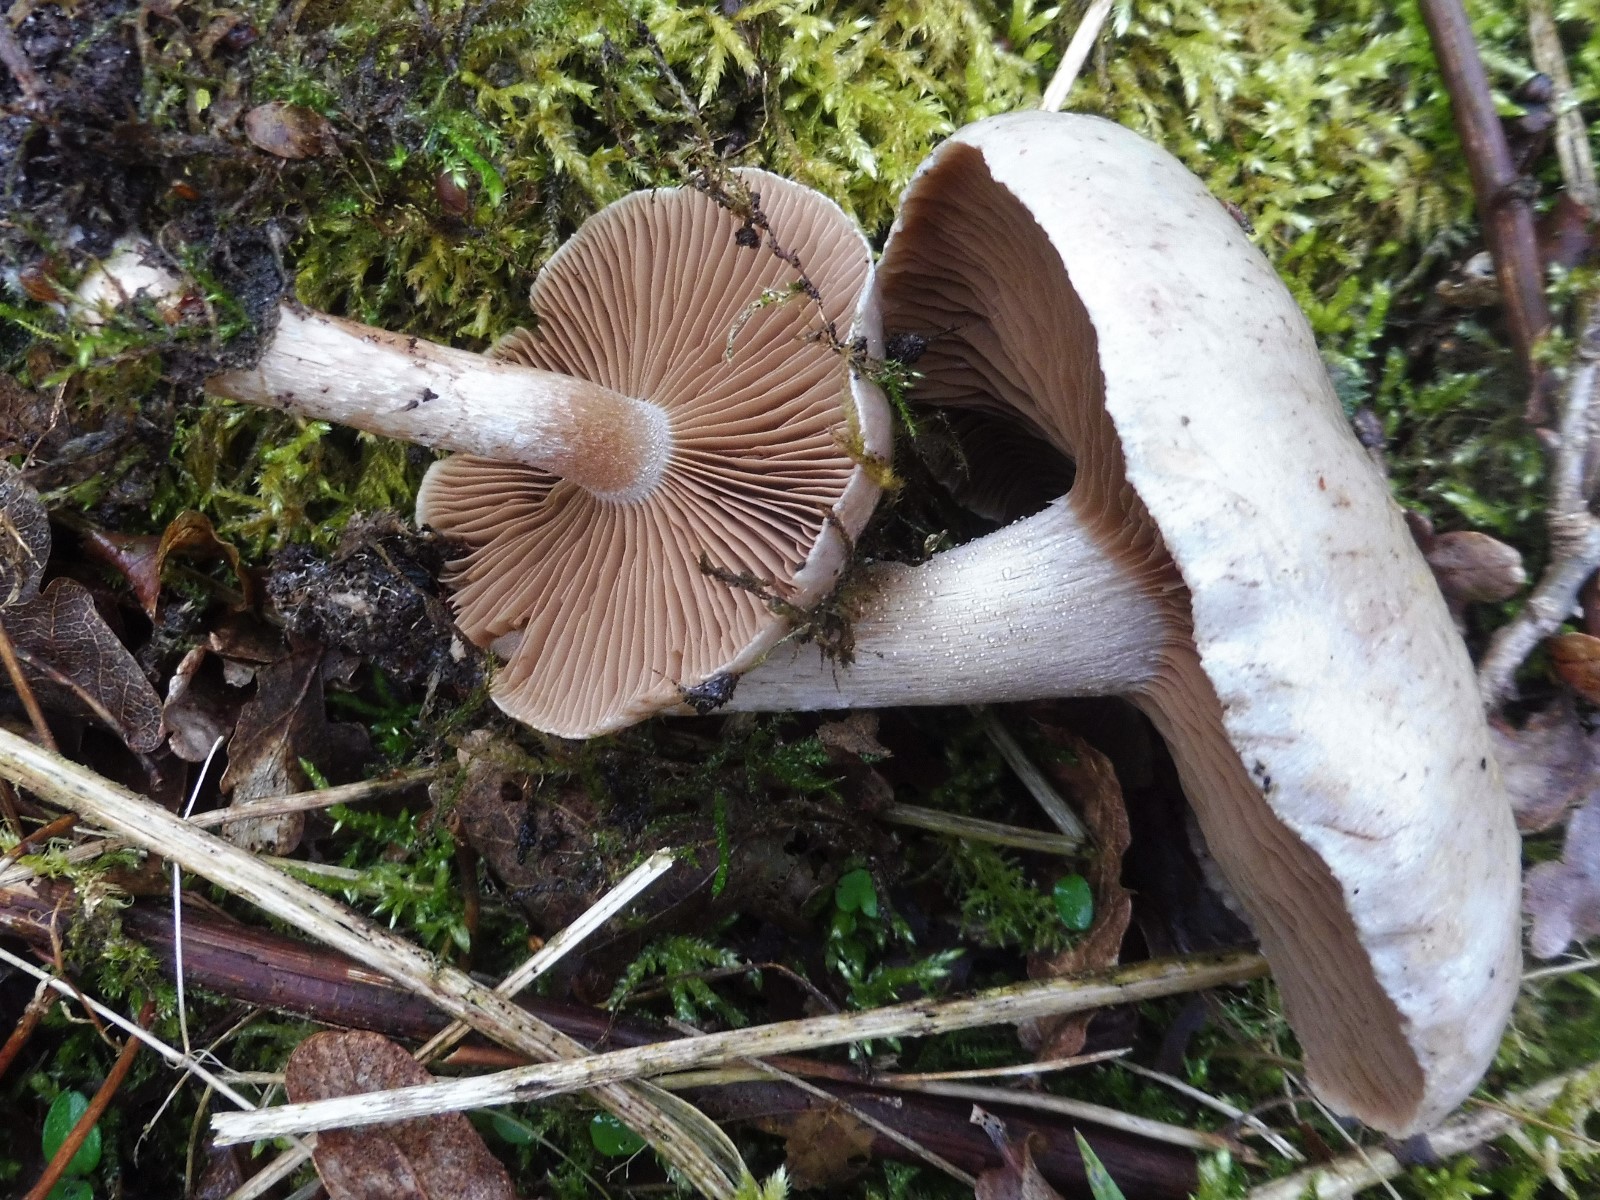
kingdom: Fungi
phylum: Basidiomycota
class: Agaricomycetes
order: Agaricales
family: Strophariaceae
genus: Pholiota
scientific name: Pholiota lenta
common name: løv-skælhat
